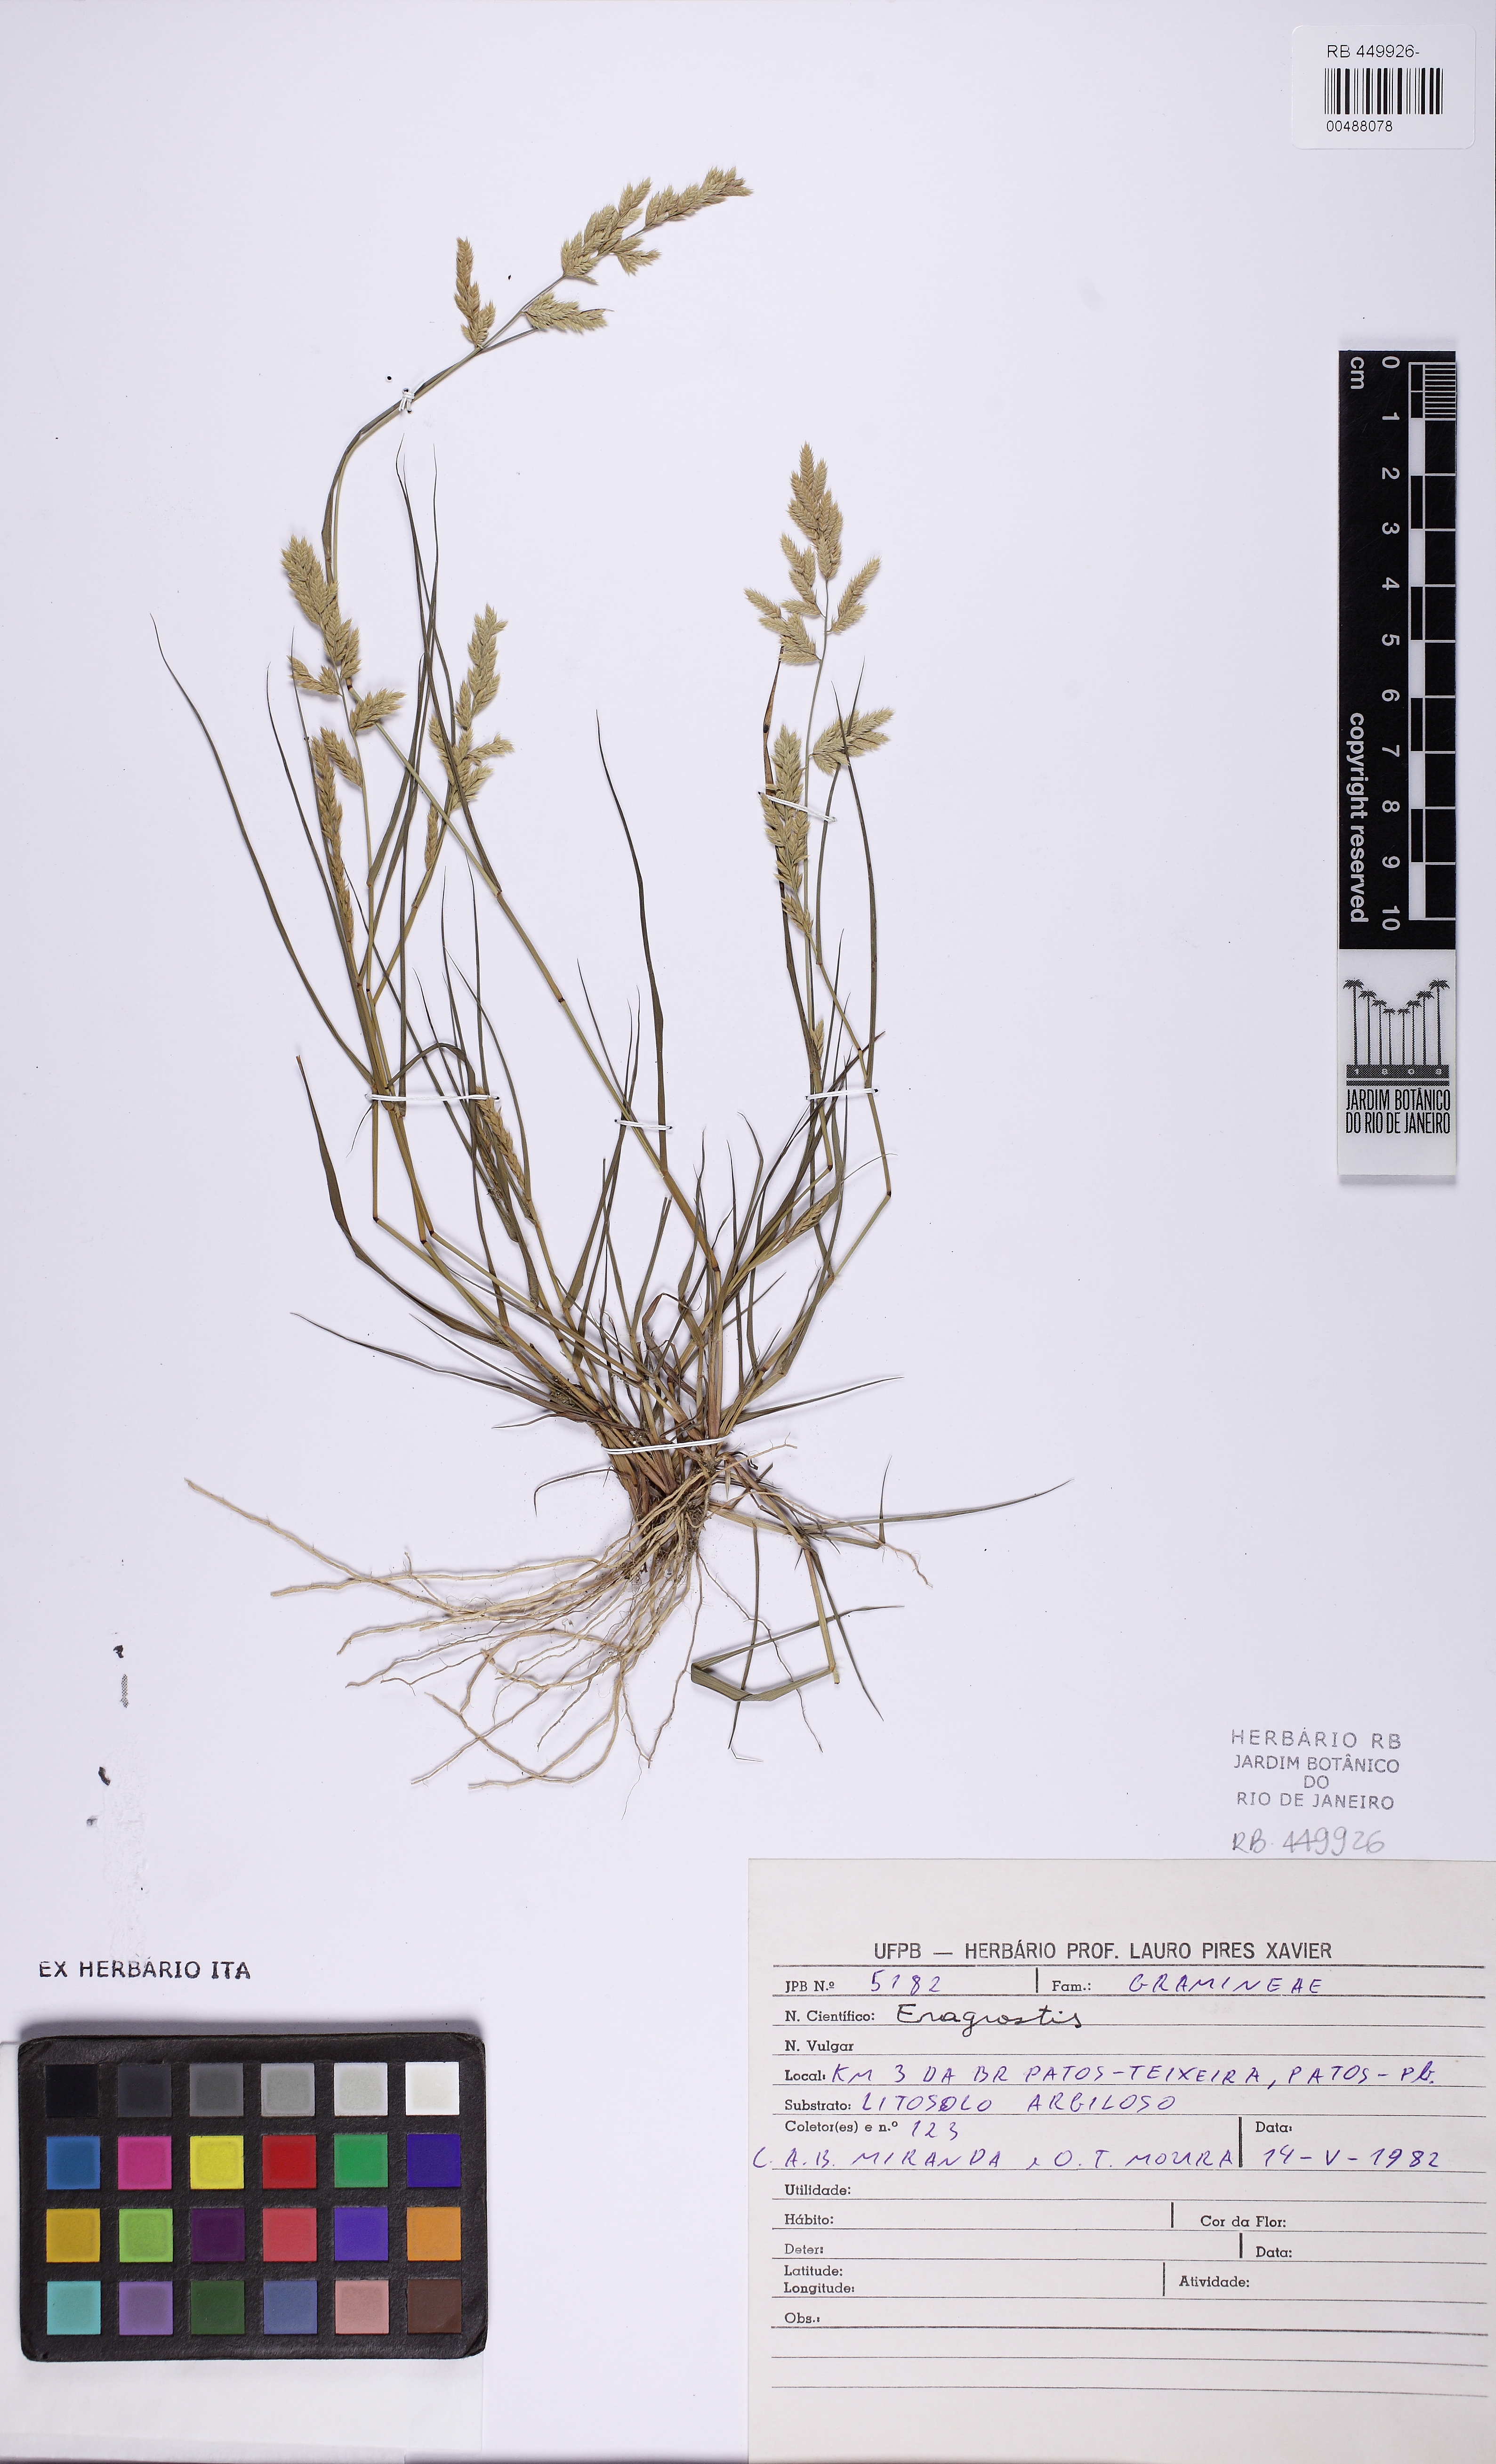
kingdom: Plantae
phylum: Tracheophyta
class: Liliopsida
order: Poales
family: Poaceae
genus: Eragrostis
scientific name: Eragrostis
